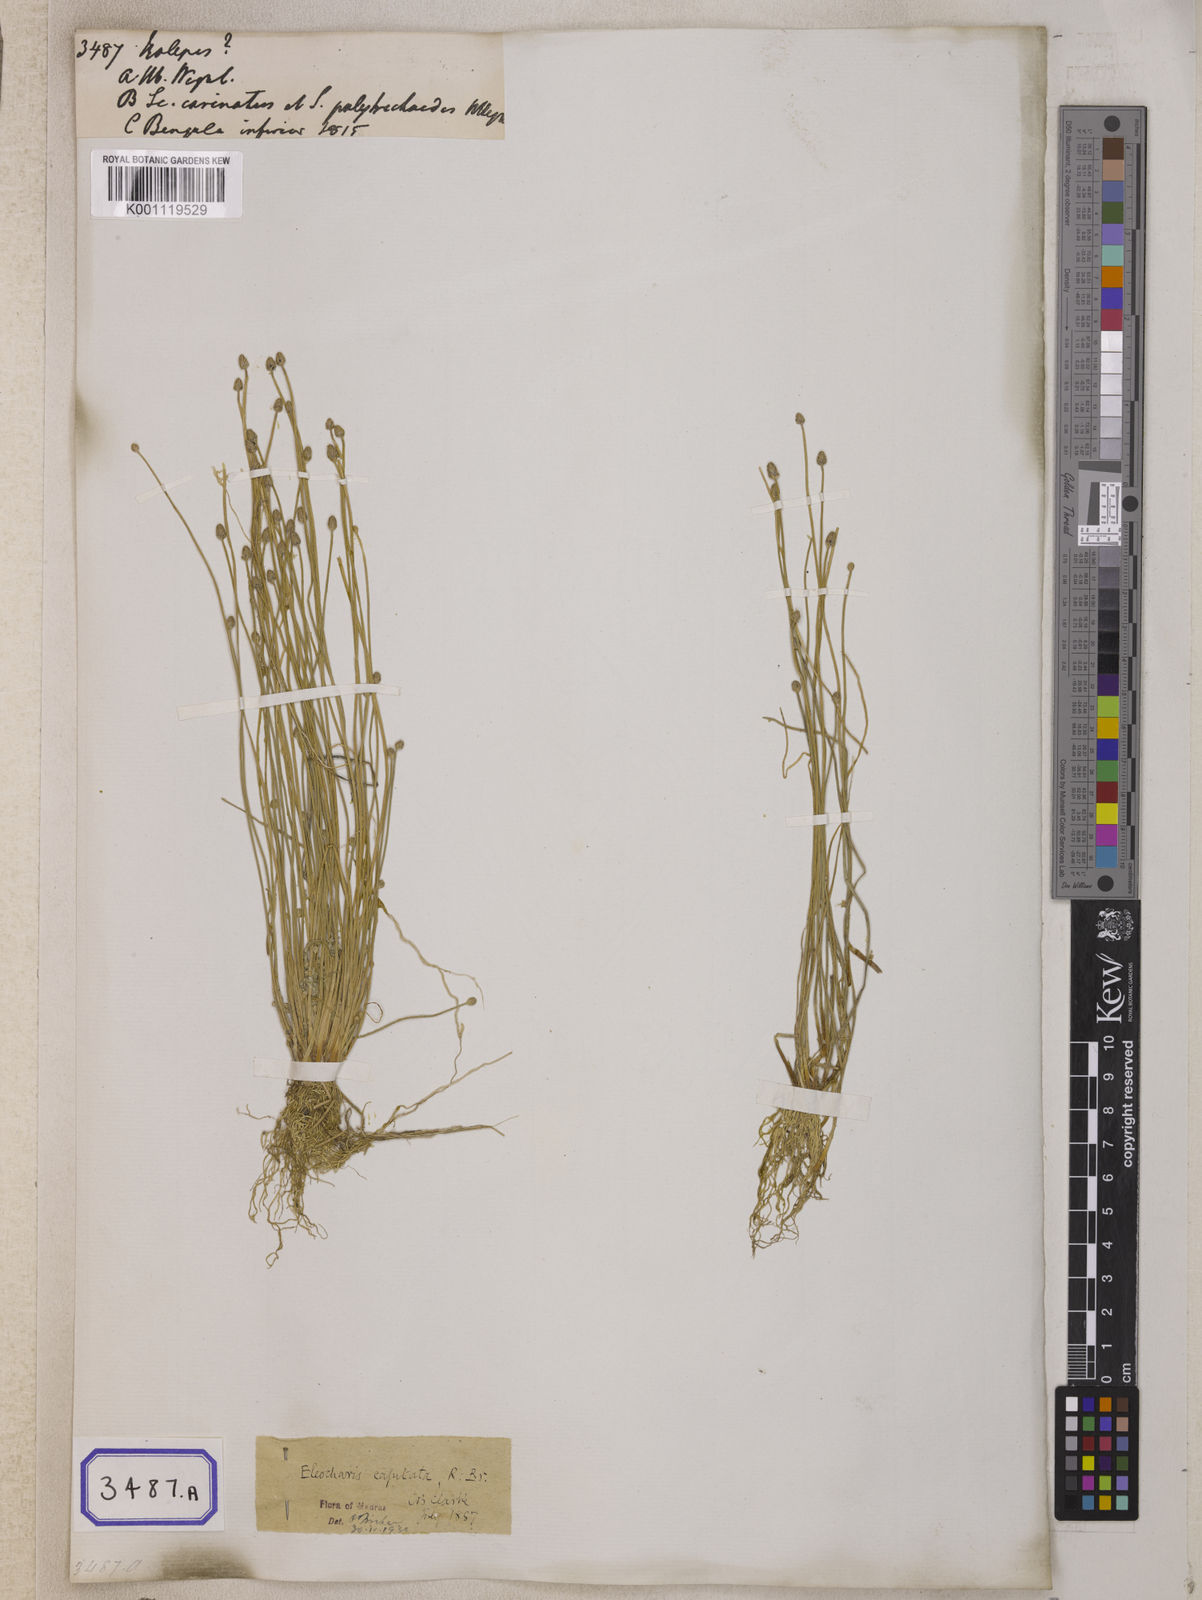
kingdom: Plantae
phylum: Tracheophyta
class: Liliopsida
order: Poales
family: Cyperaceae
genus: Isolepis
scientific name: Isolepis
